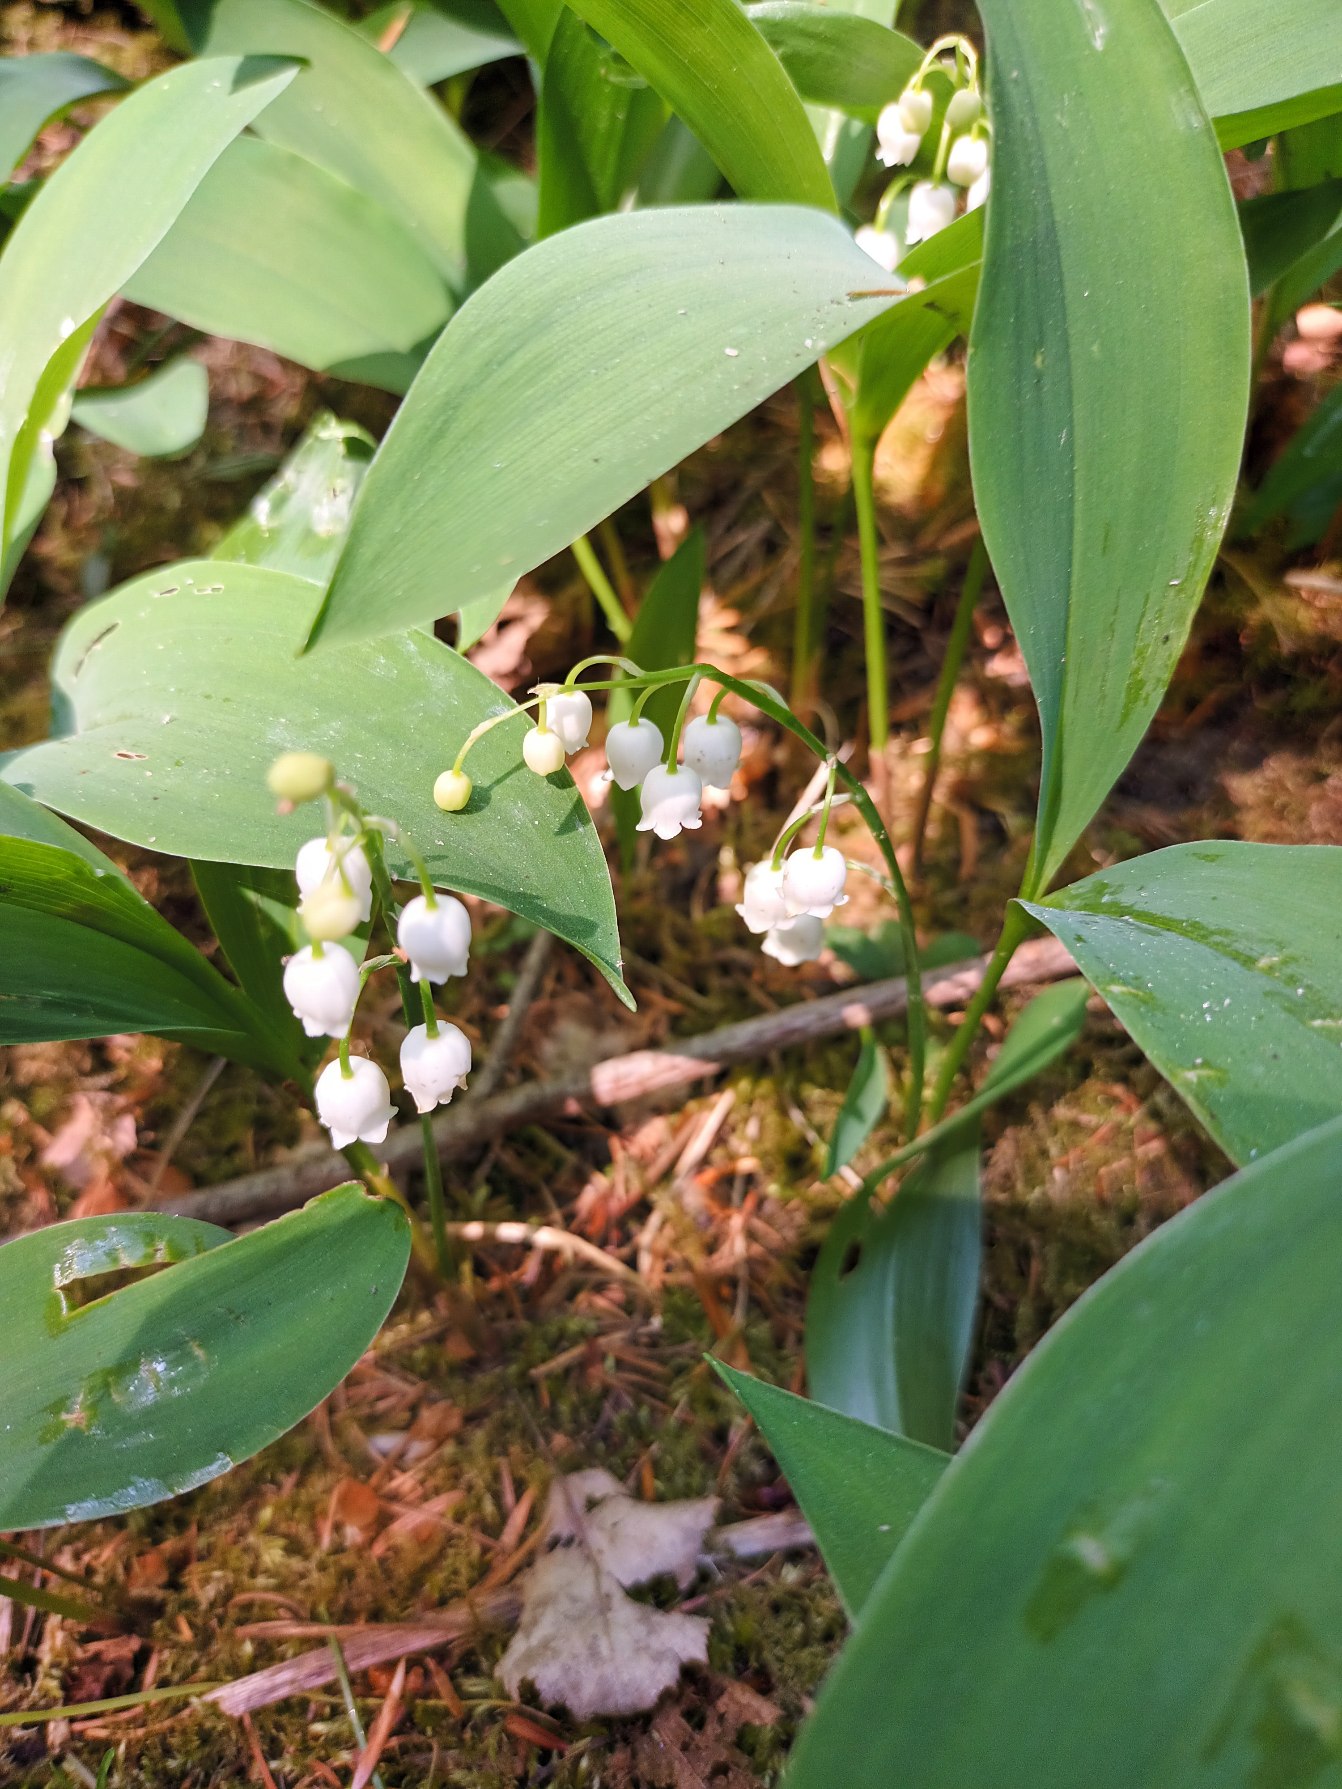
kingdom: Plantae
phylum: Tracheophyta
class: Liliopsida
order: Asparagales
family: Asparagaceae
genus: Convallaria
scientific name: Convallaria majalis
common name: Liljekonval
